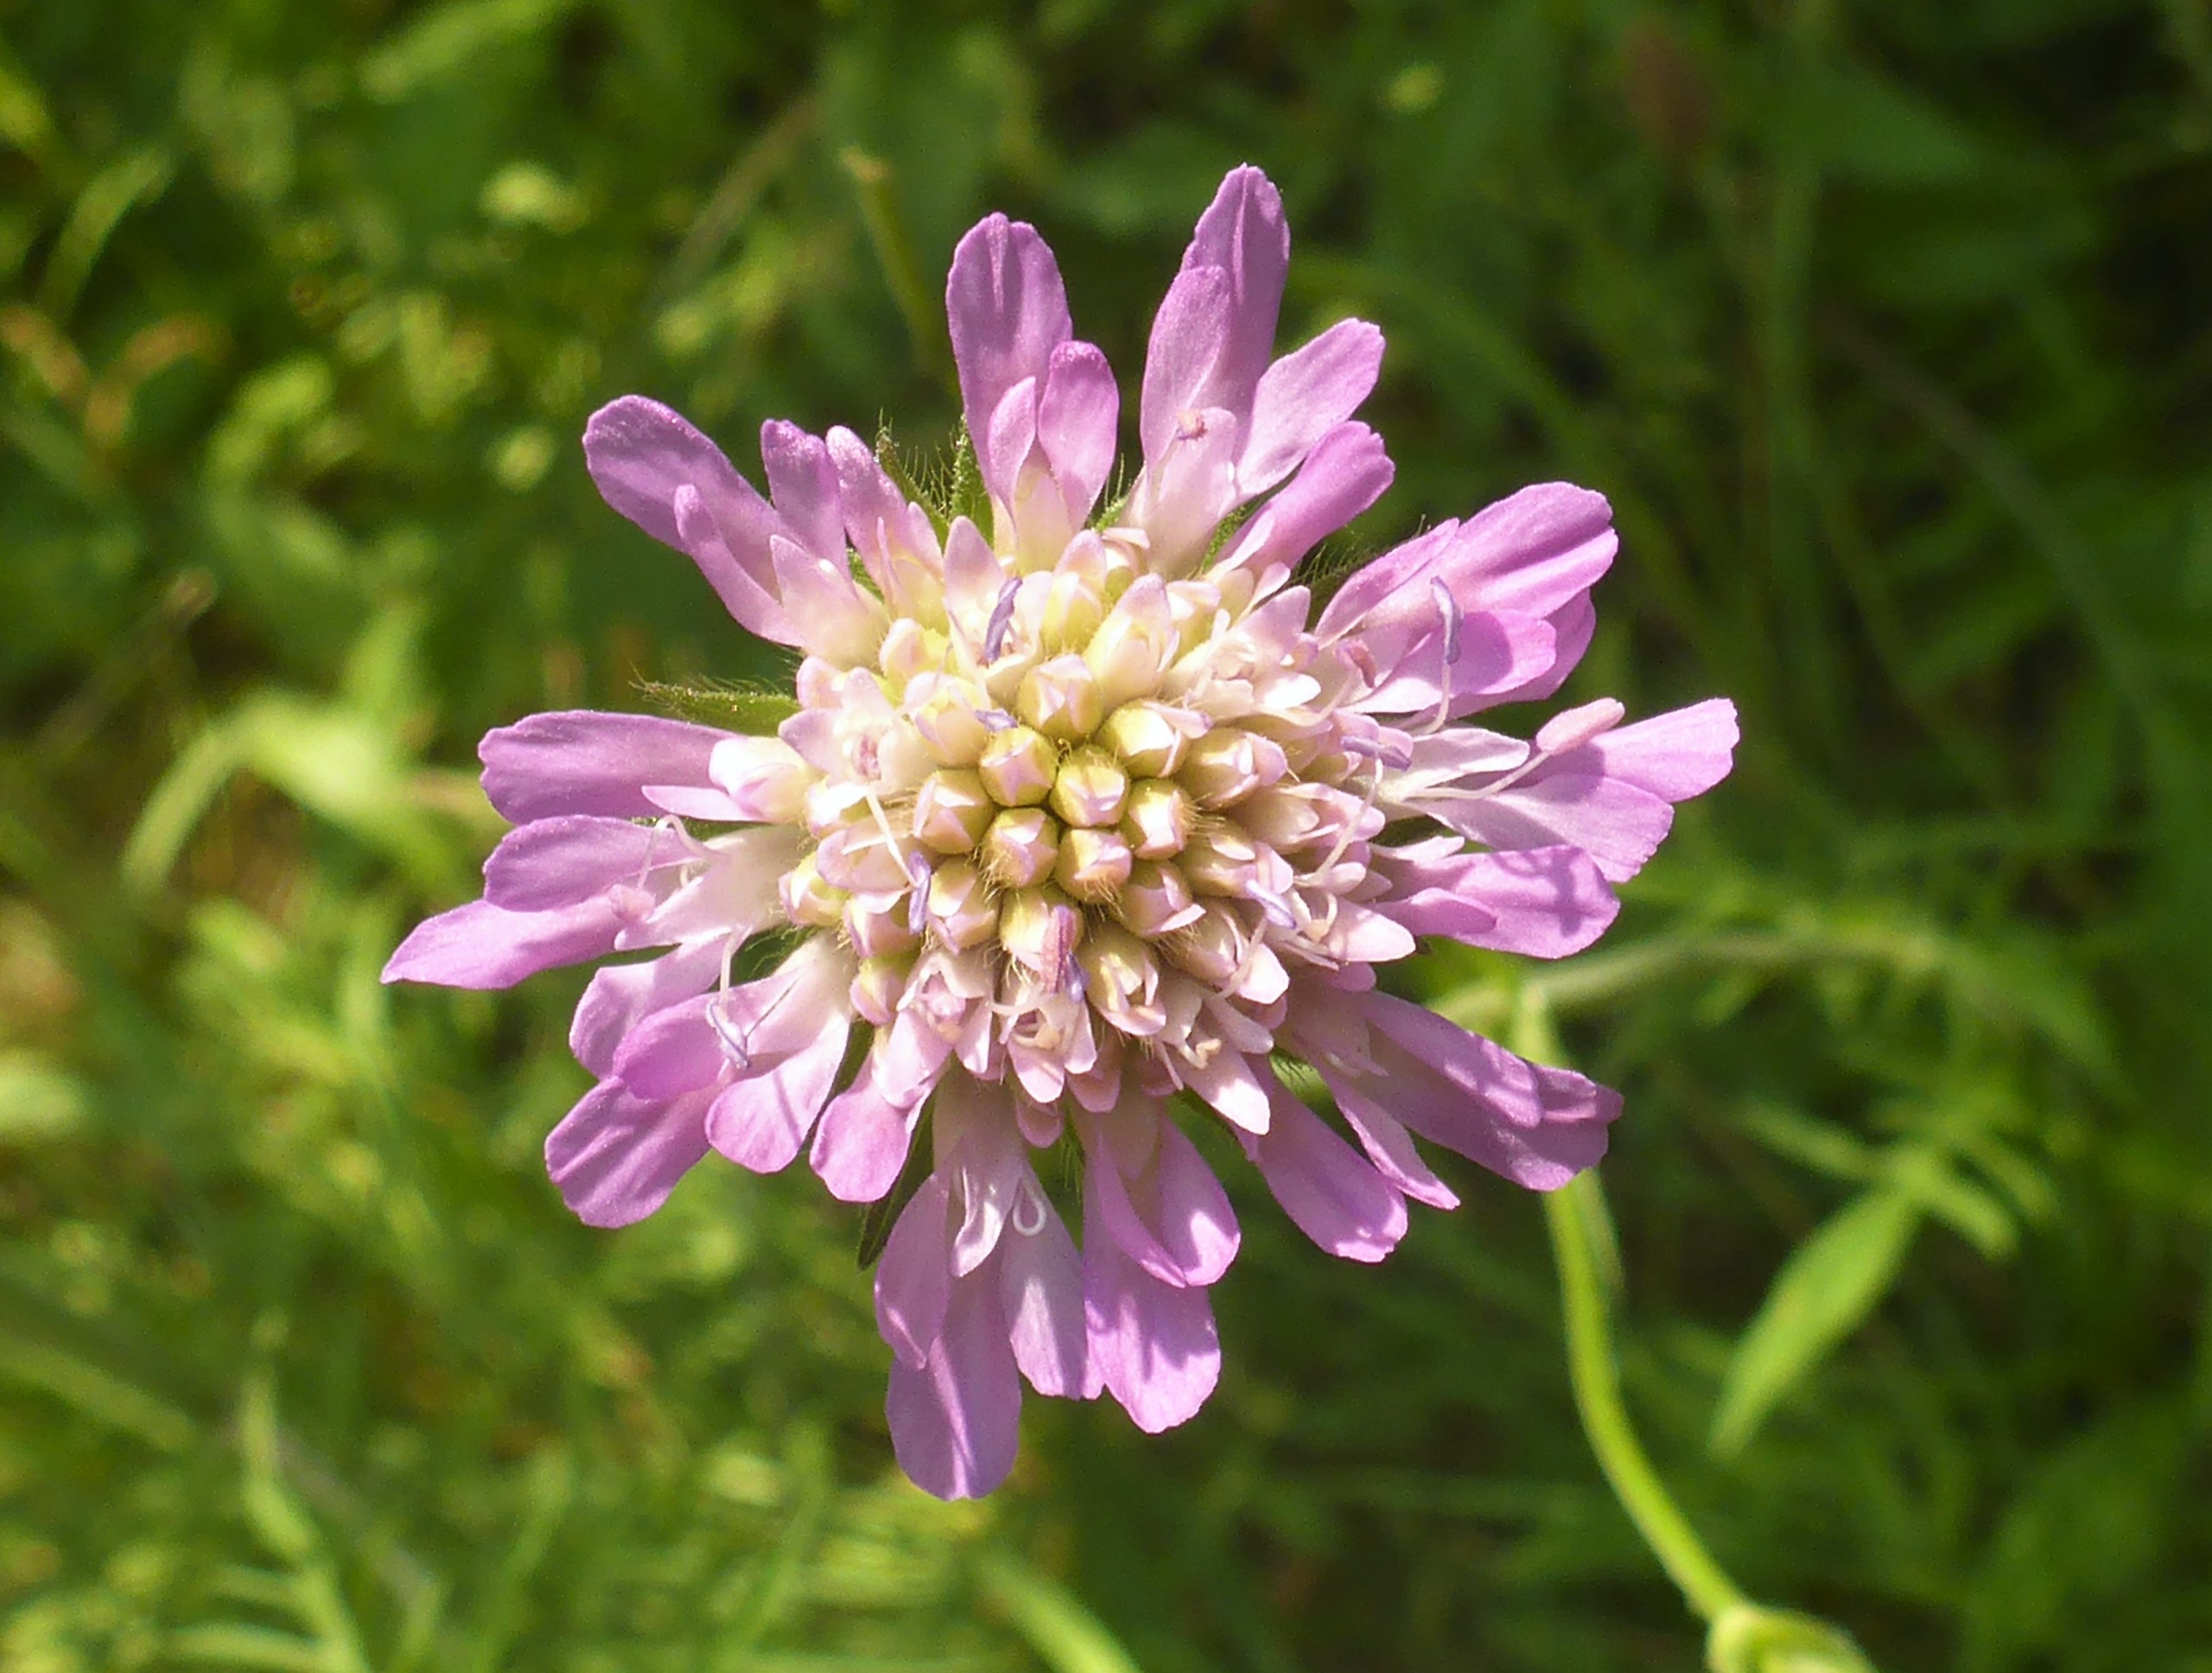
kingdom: Plantae
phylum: Tracheophyta
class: Magnoliopsida
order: Dipsacales
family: Caprifoliaceae
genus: Knautia
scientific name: Knautia arvensis
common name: Blåhat
